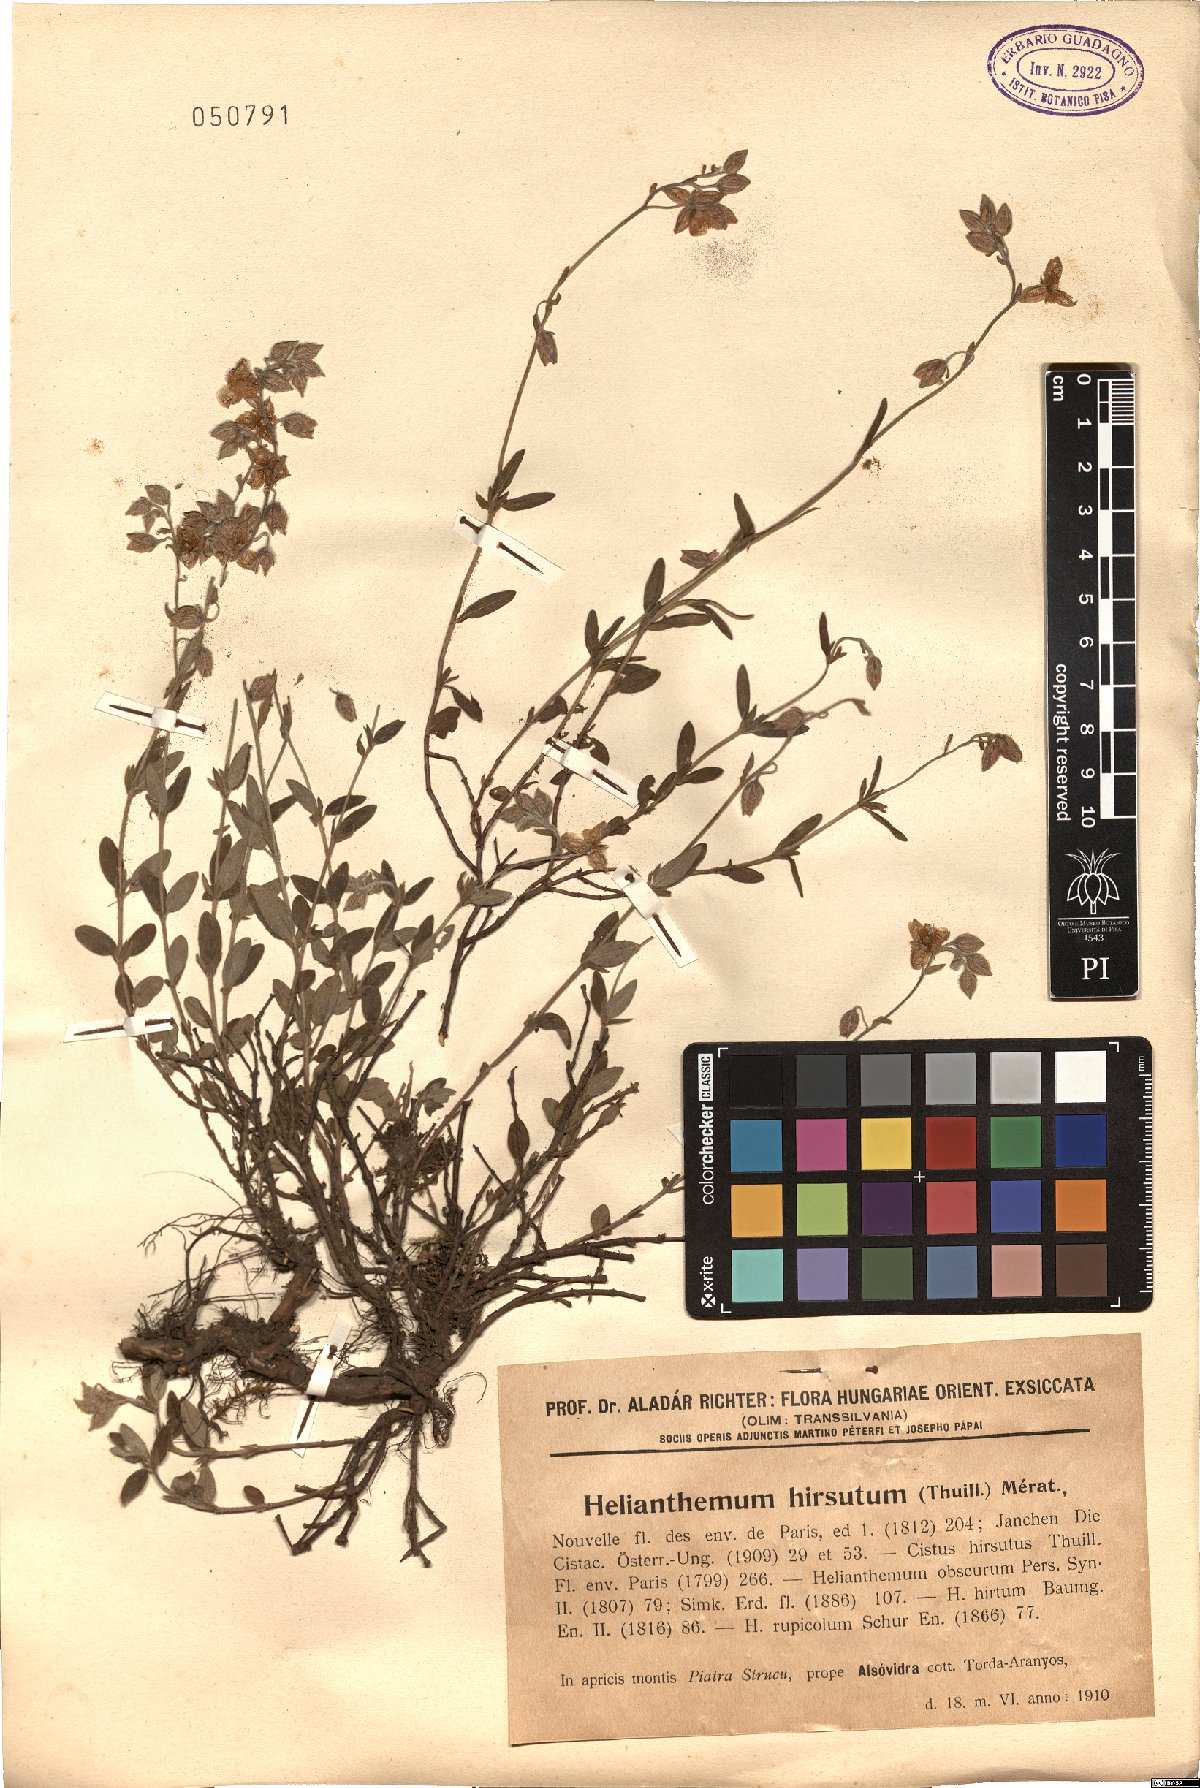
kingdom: Plantae
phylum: Tracheophyta
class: Magnoliopsida
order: Malvales
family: Cistaceae
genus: Helianthemum
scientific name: Helianthemum nummularium
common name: Common rock-rose
